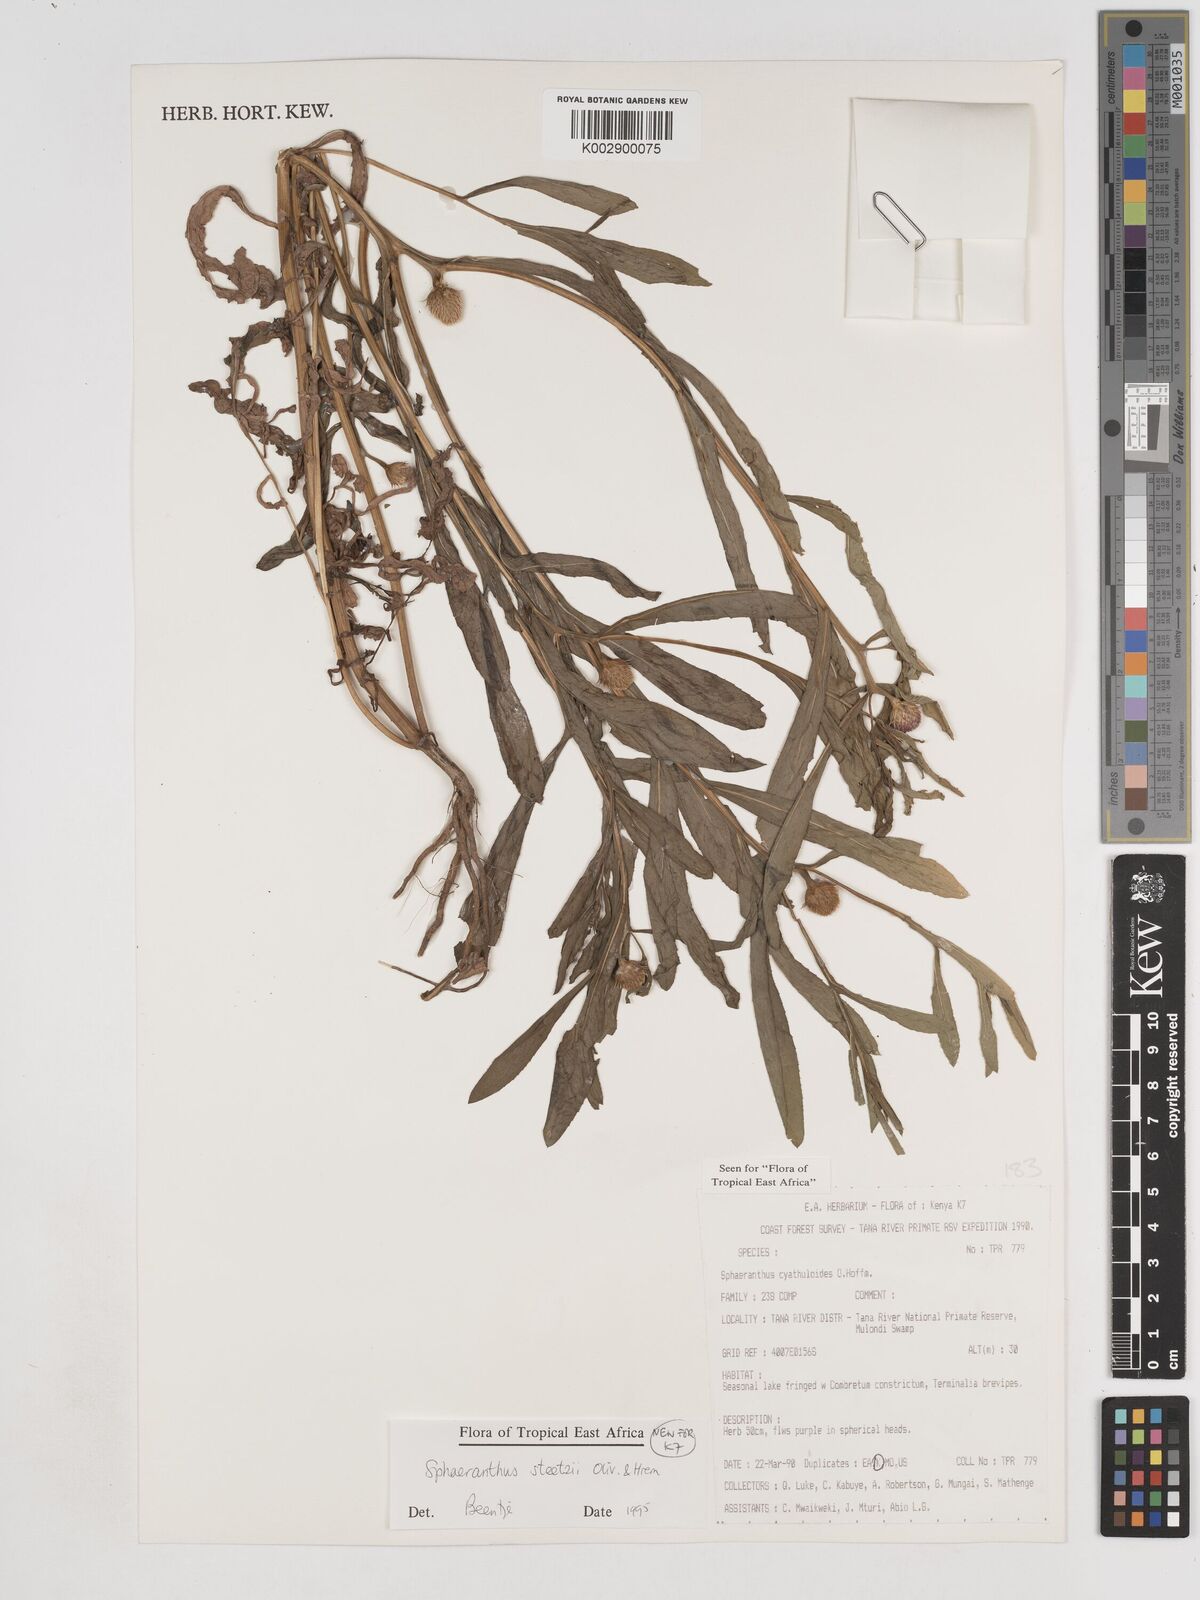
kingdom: Plantae
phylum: Tracheophyta
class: Magnoliopsida
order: Asterales
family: Asteraceae
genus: Sphaeranthus
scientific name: Sphaeranthus steetzii
